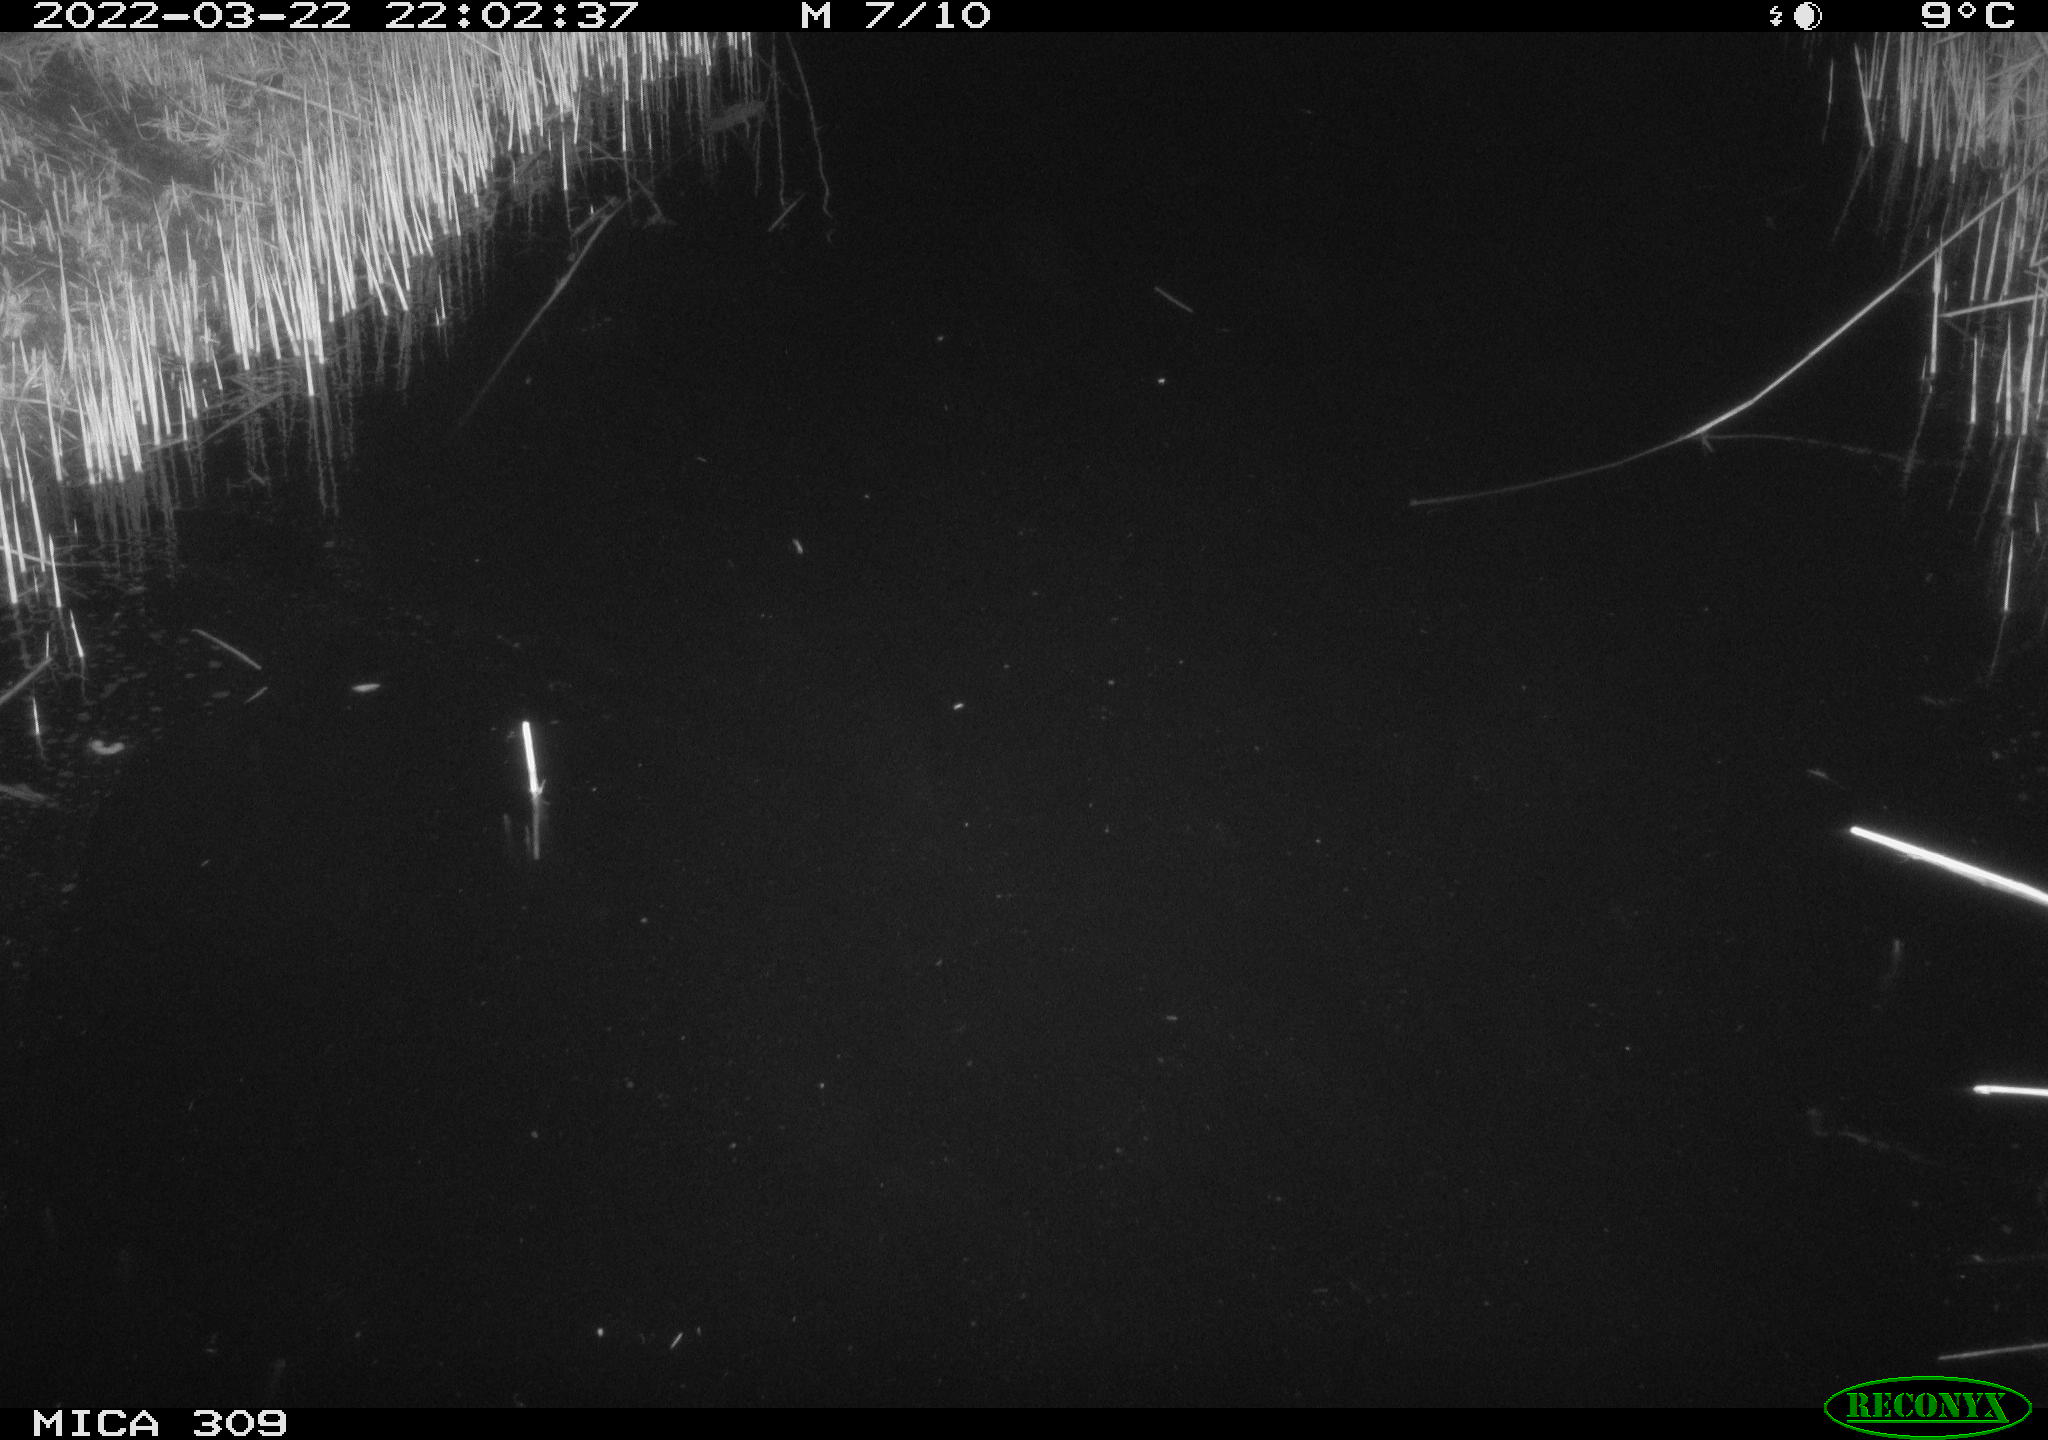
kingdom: Animalia
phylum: Chordata
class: Mammalia
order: Rodentia
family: Muridae
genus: Rattus
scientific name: Rattus norvegicus
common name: Brown rat
